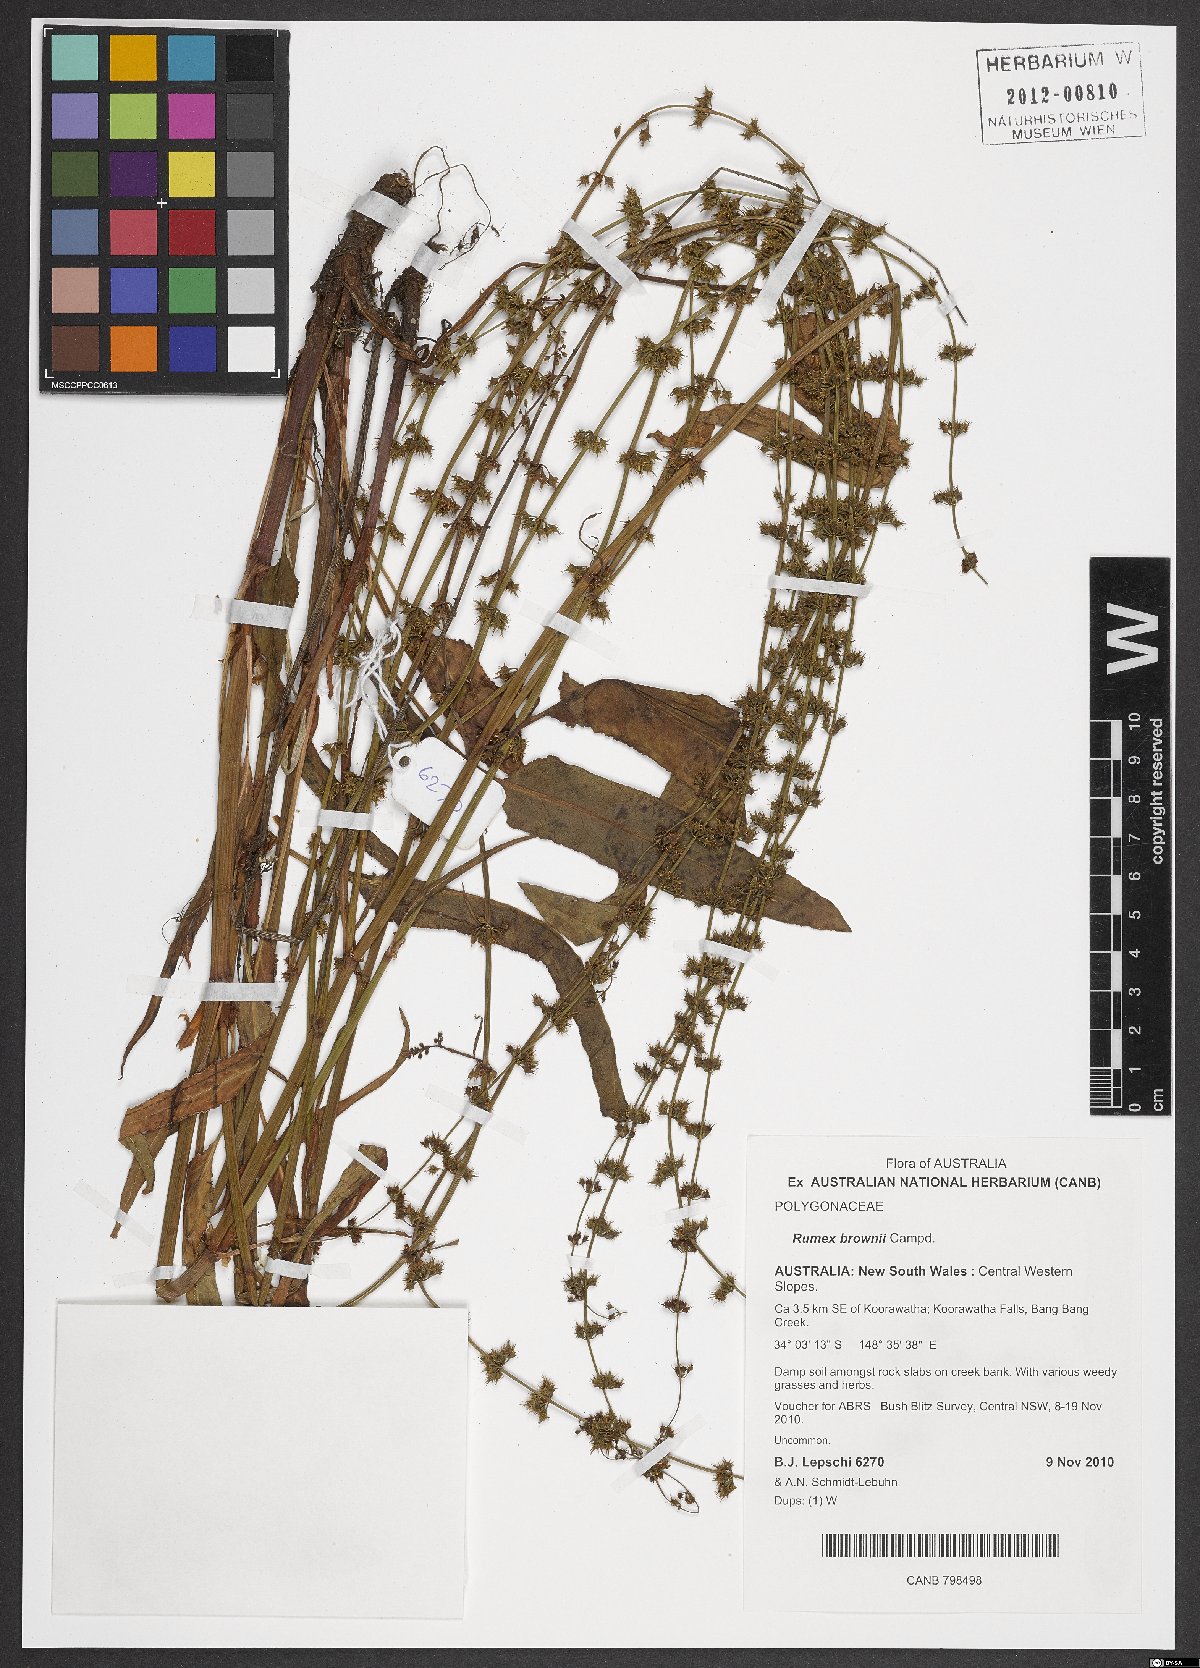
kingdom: Plantae
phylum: Tracheophyta
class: Magnoliopsida
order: Caryophyllales
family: Polygonaceae
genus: Rumex
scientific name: Rumex brownii
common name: Hooked dock
